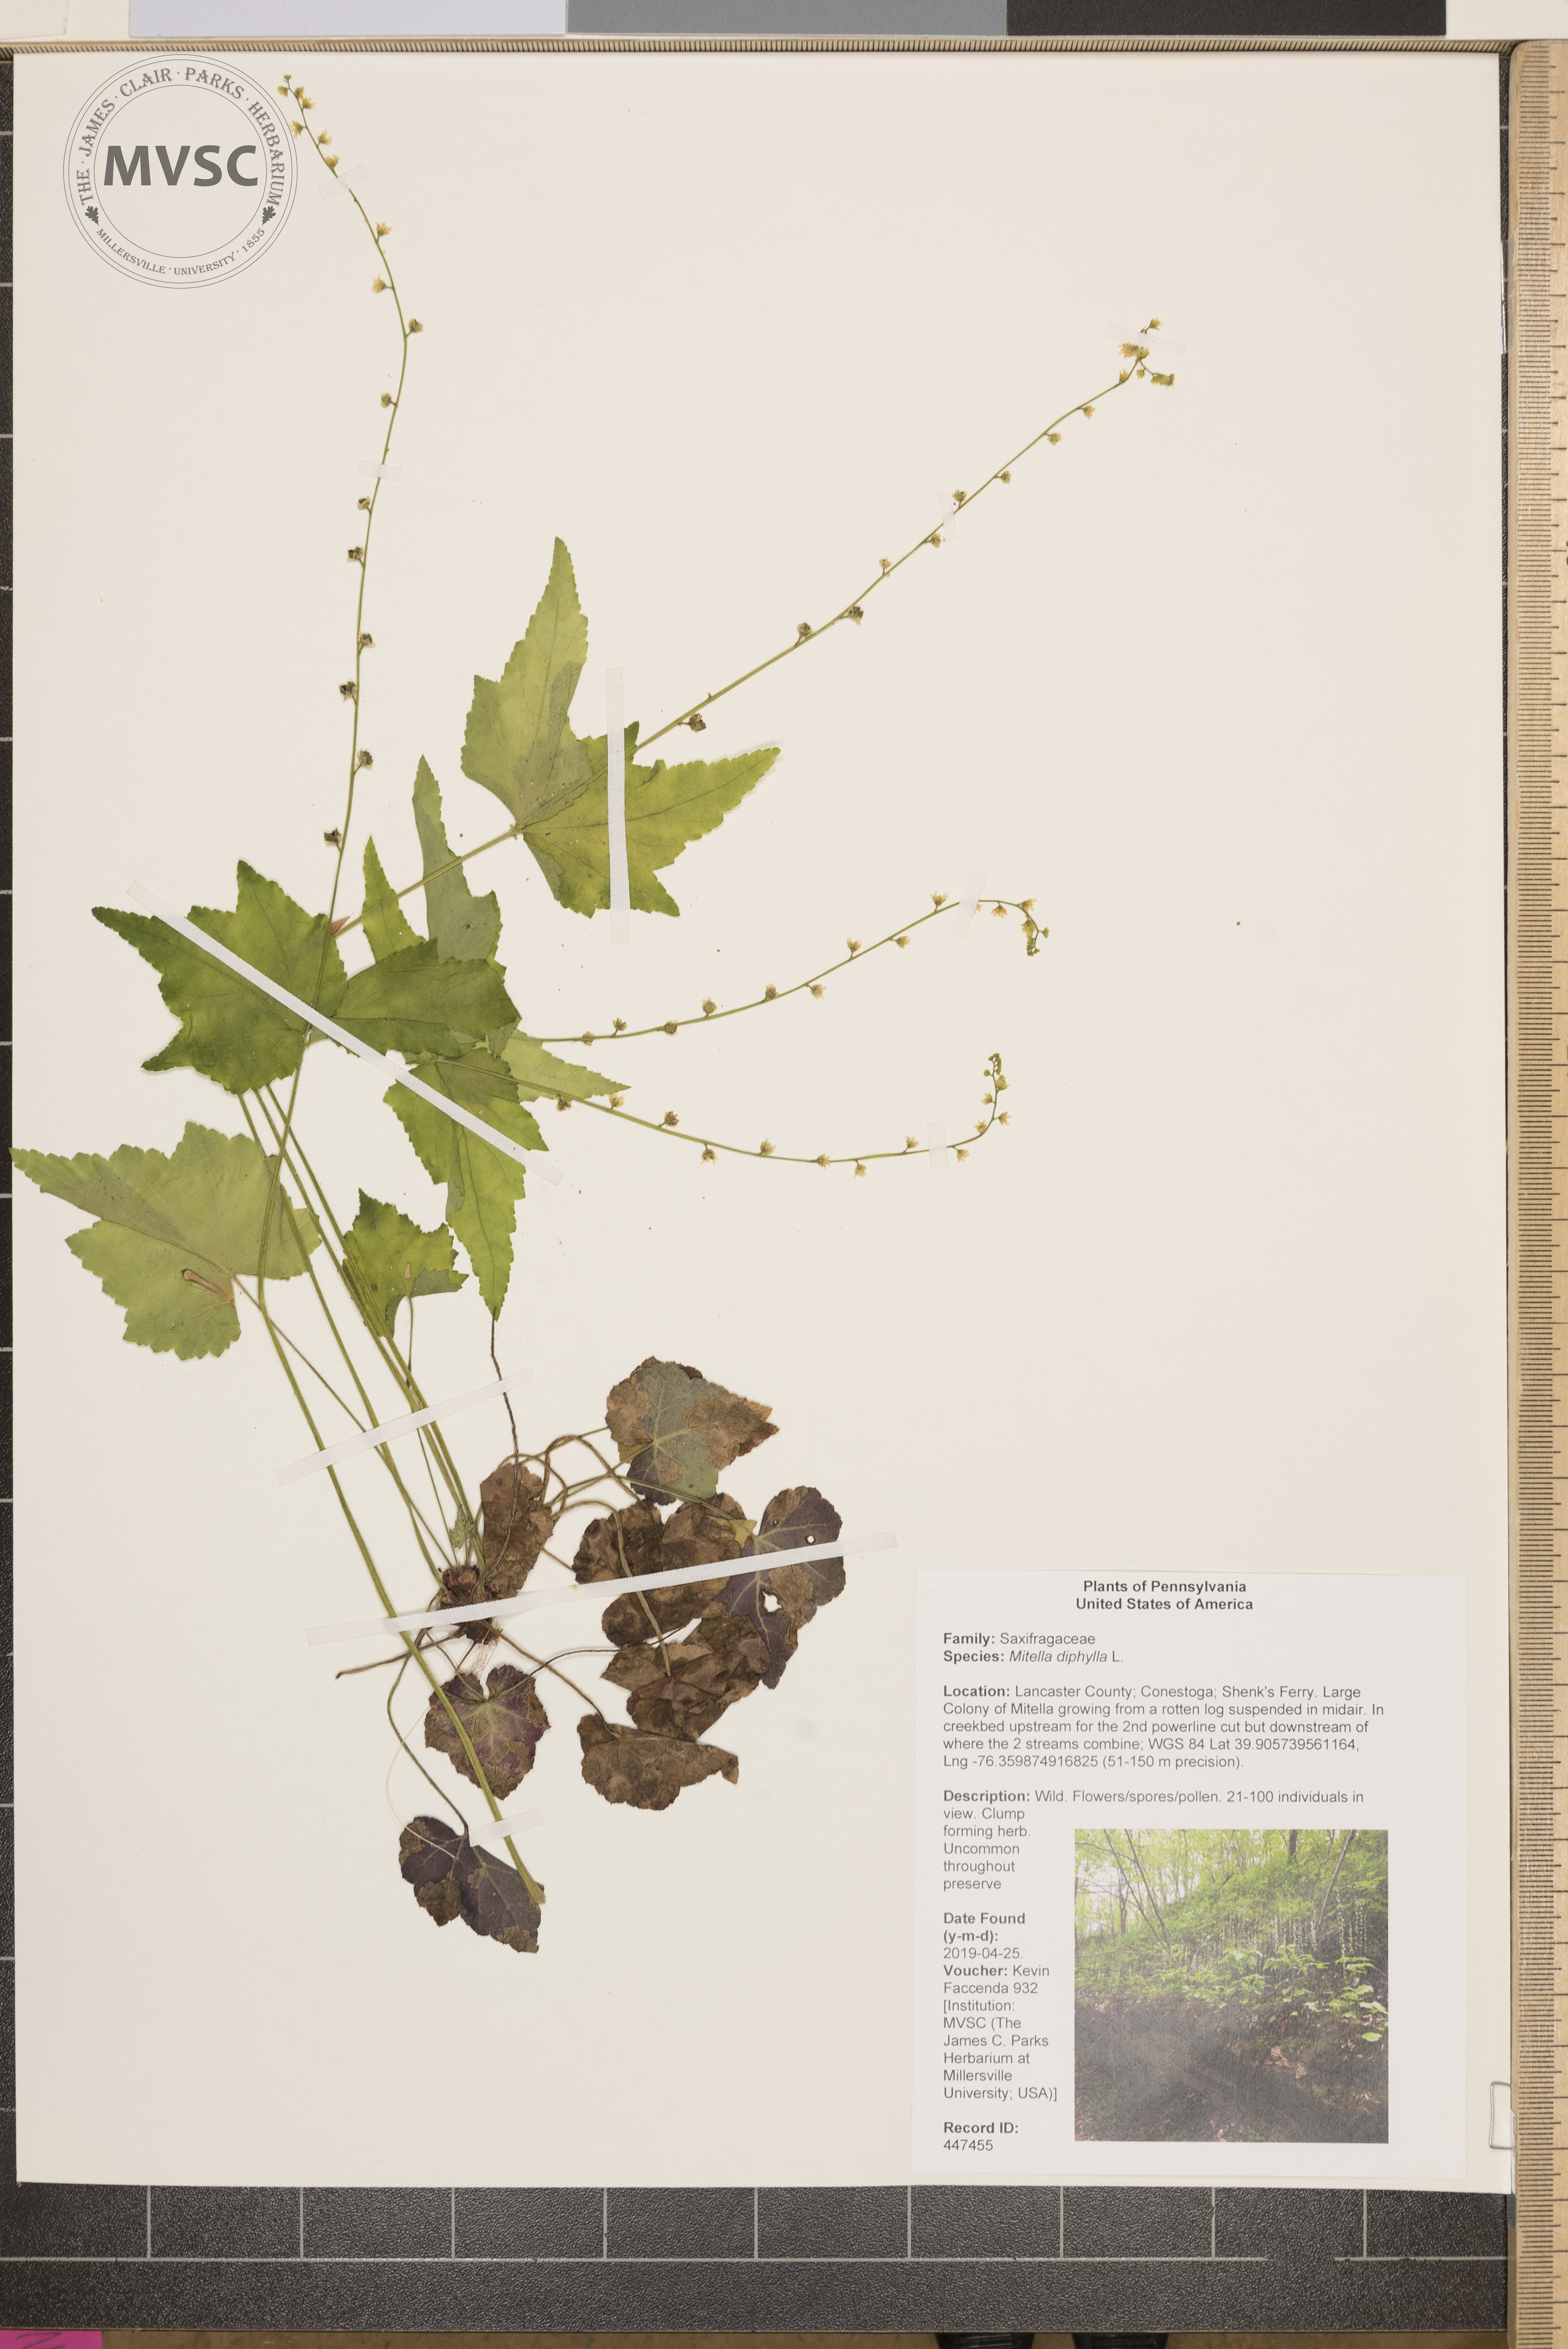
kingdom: Plantae
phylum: Tracheophyta
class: Magnoliopsida
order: Saxifragales
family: Saxifragaceae
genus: Mitella
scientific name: Mitella diphylla
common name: Coolwort
